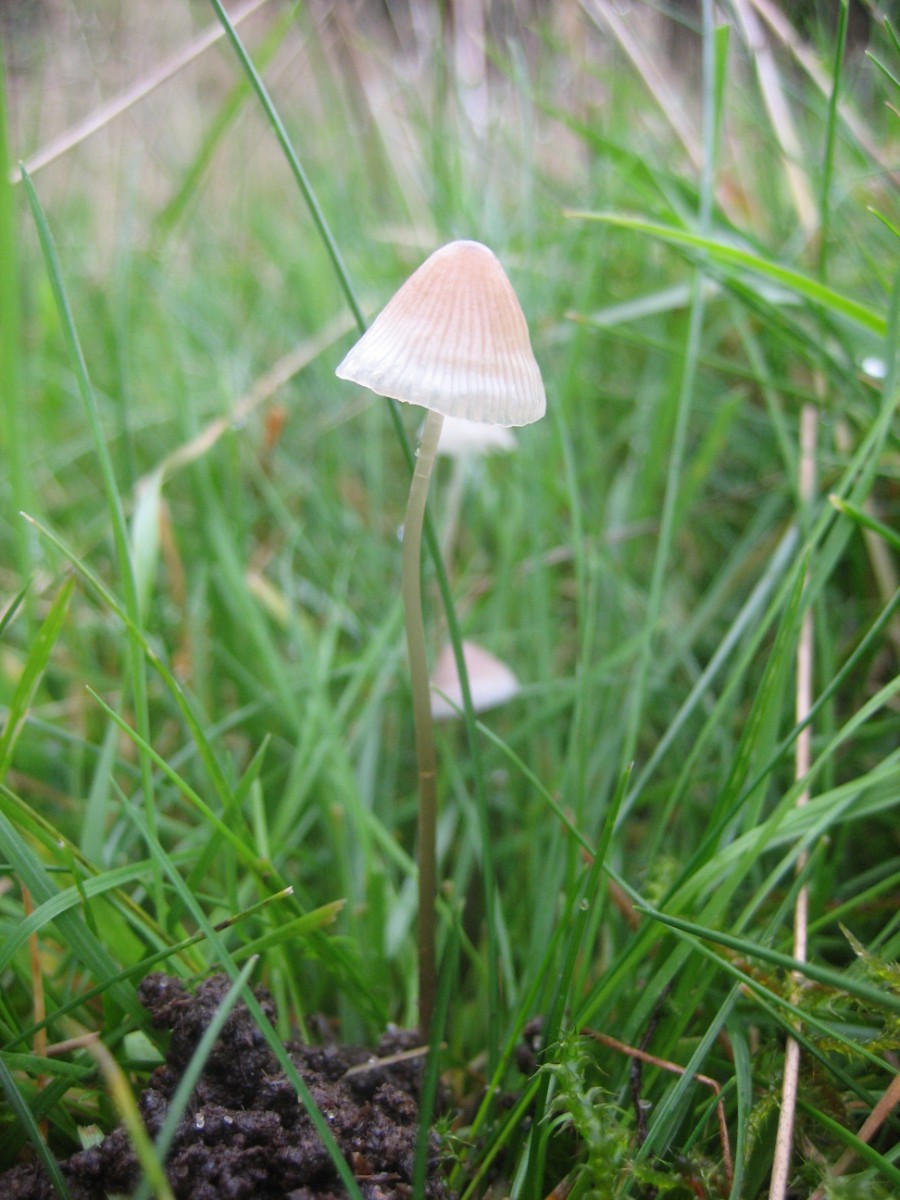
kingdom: Fungi
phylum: Basidiomycota
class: Agaricomycetes
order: Agaricales
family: Mycenaceae
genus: Mycena
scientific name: Mycena
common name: huesvamp
